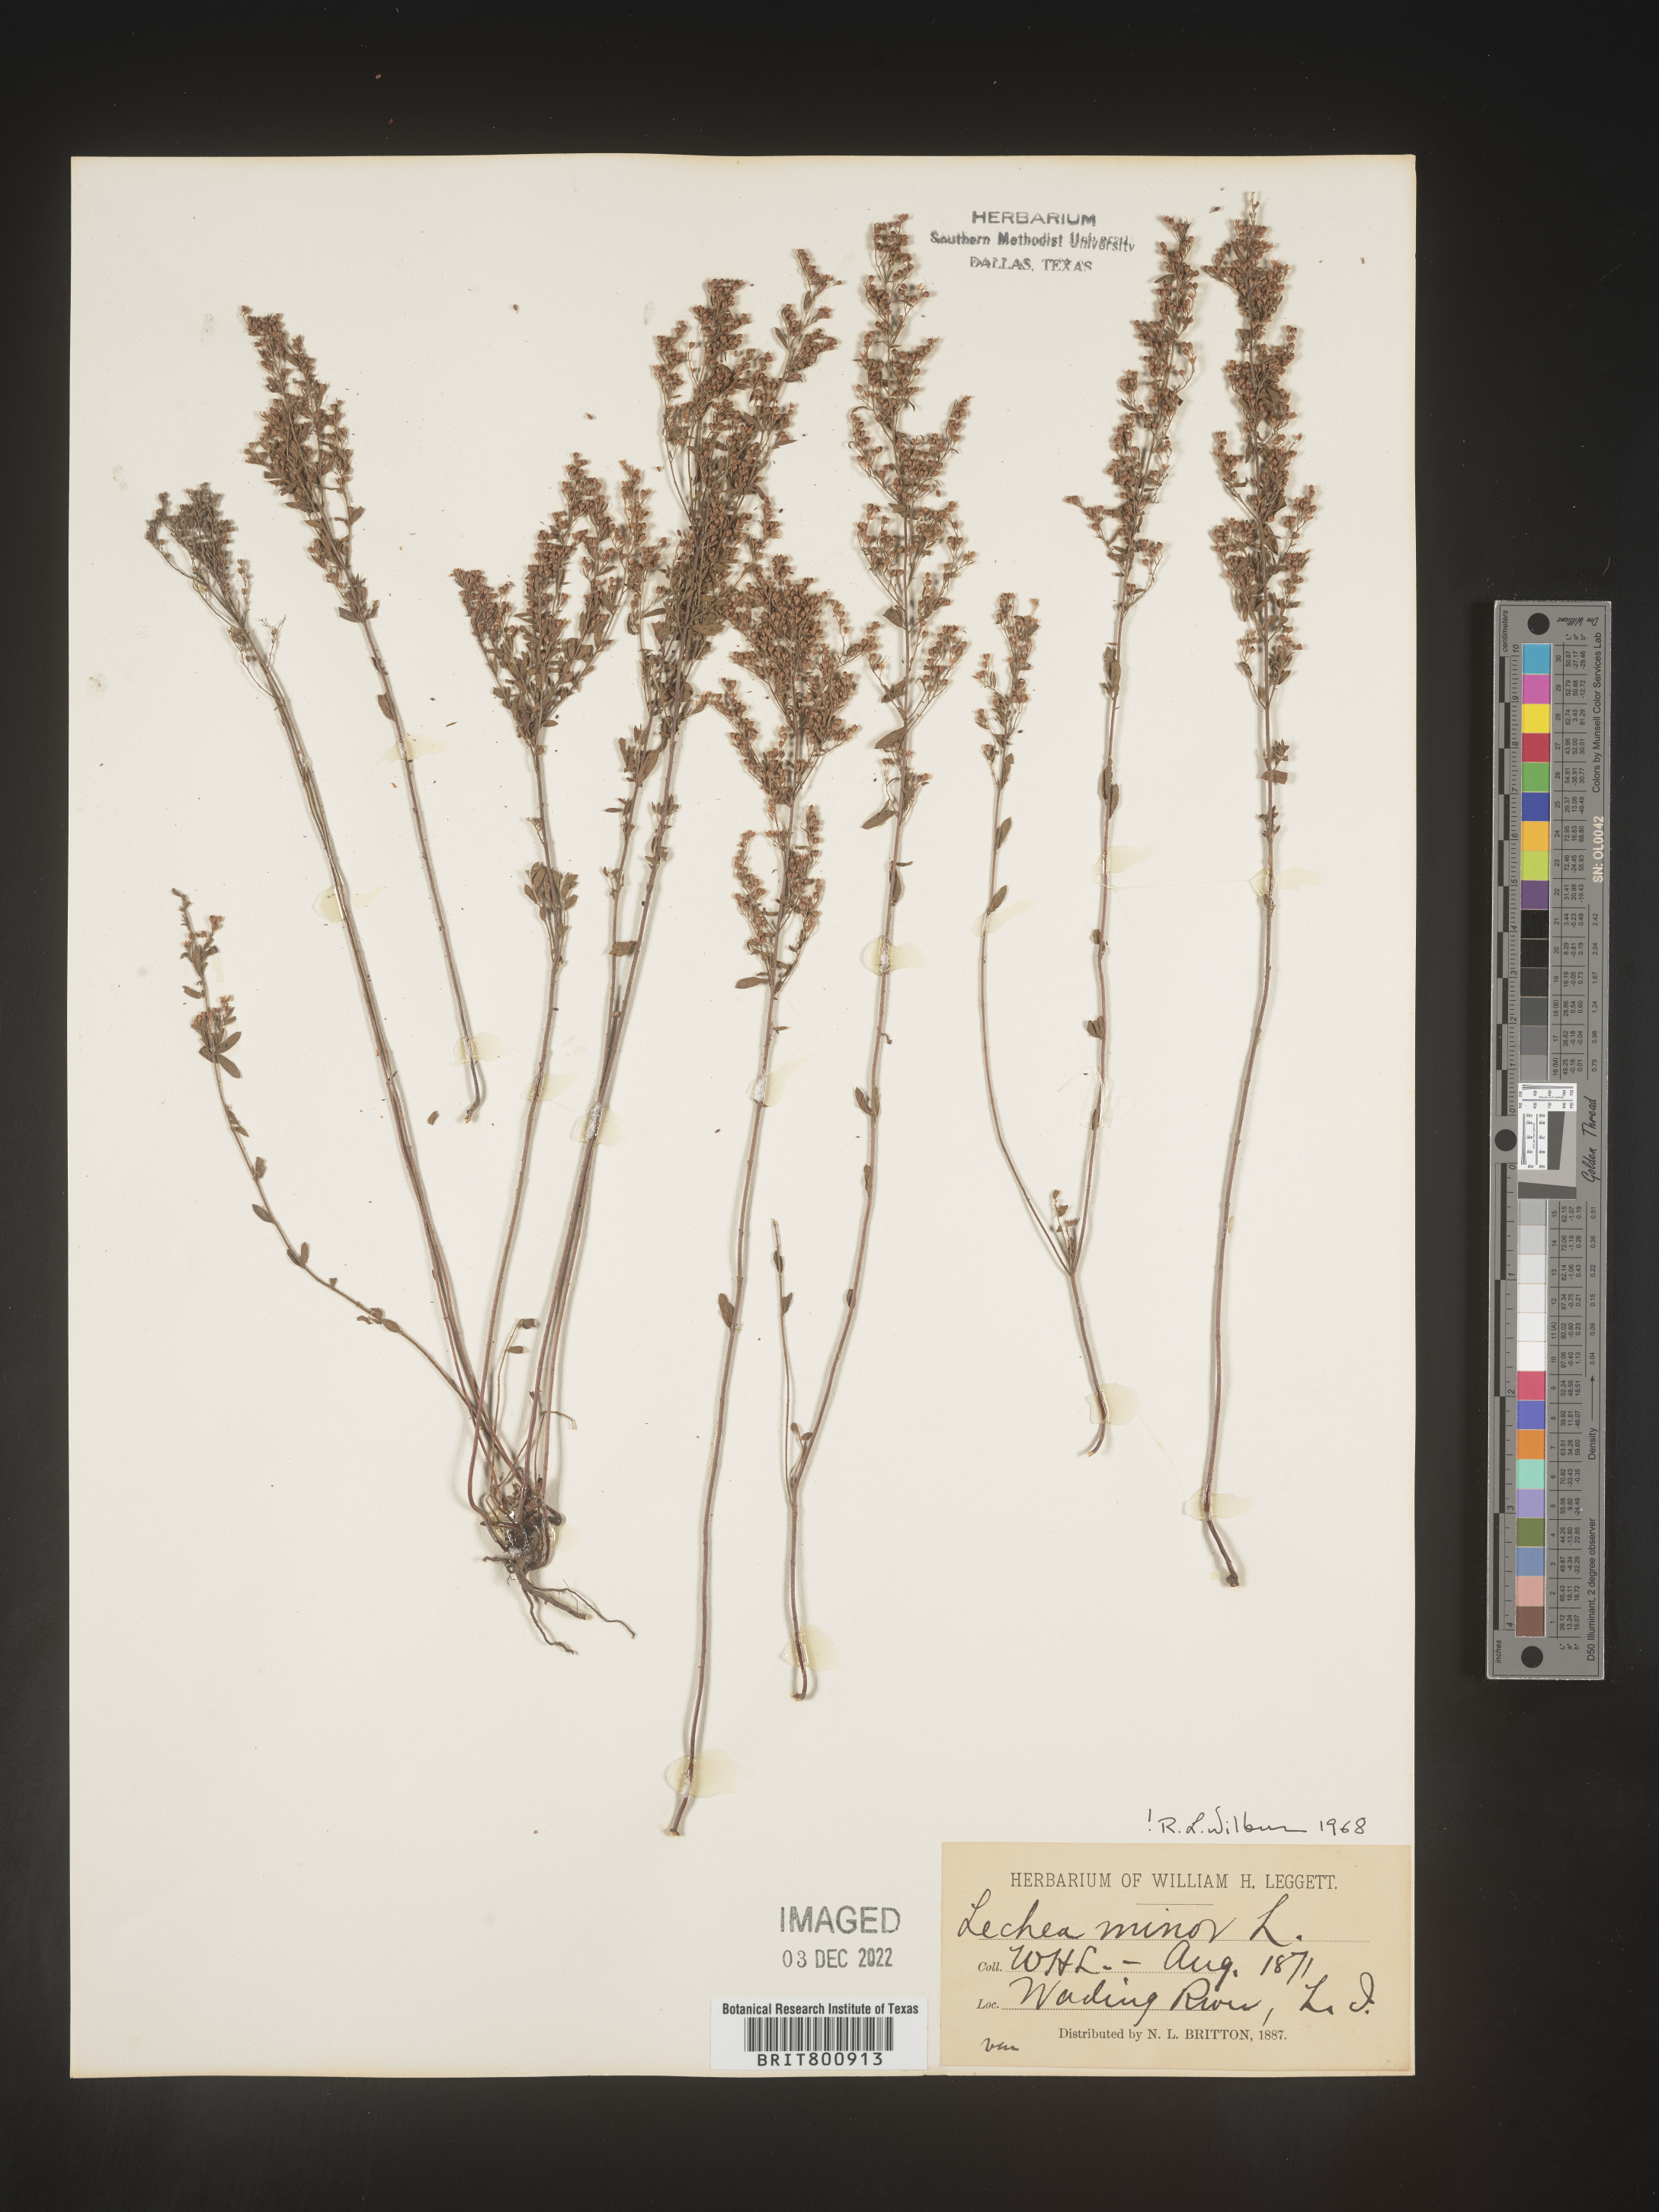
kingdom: Plantae
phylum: Tracheophyta
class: Magnoliopsida
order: Malvales
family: Cistaceae
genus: Lechea
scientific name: Lechea minor
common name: Thyme-leaf pinweed
